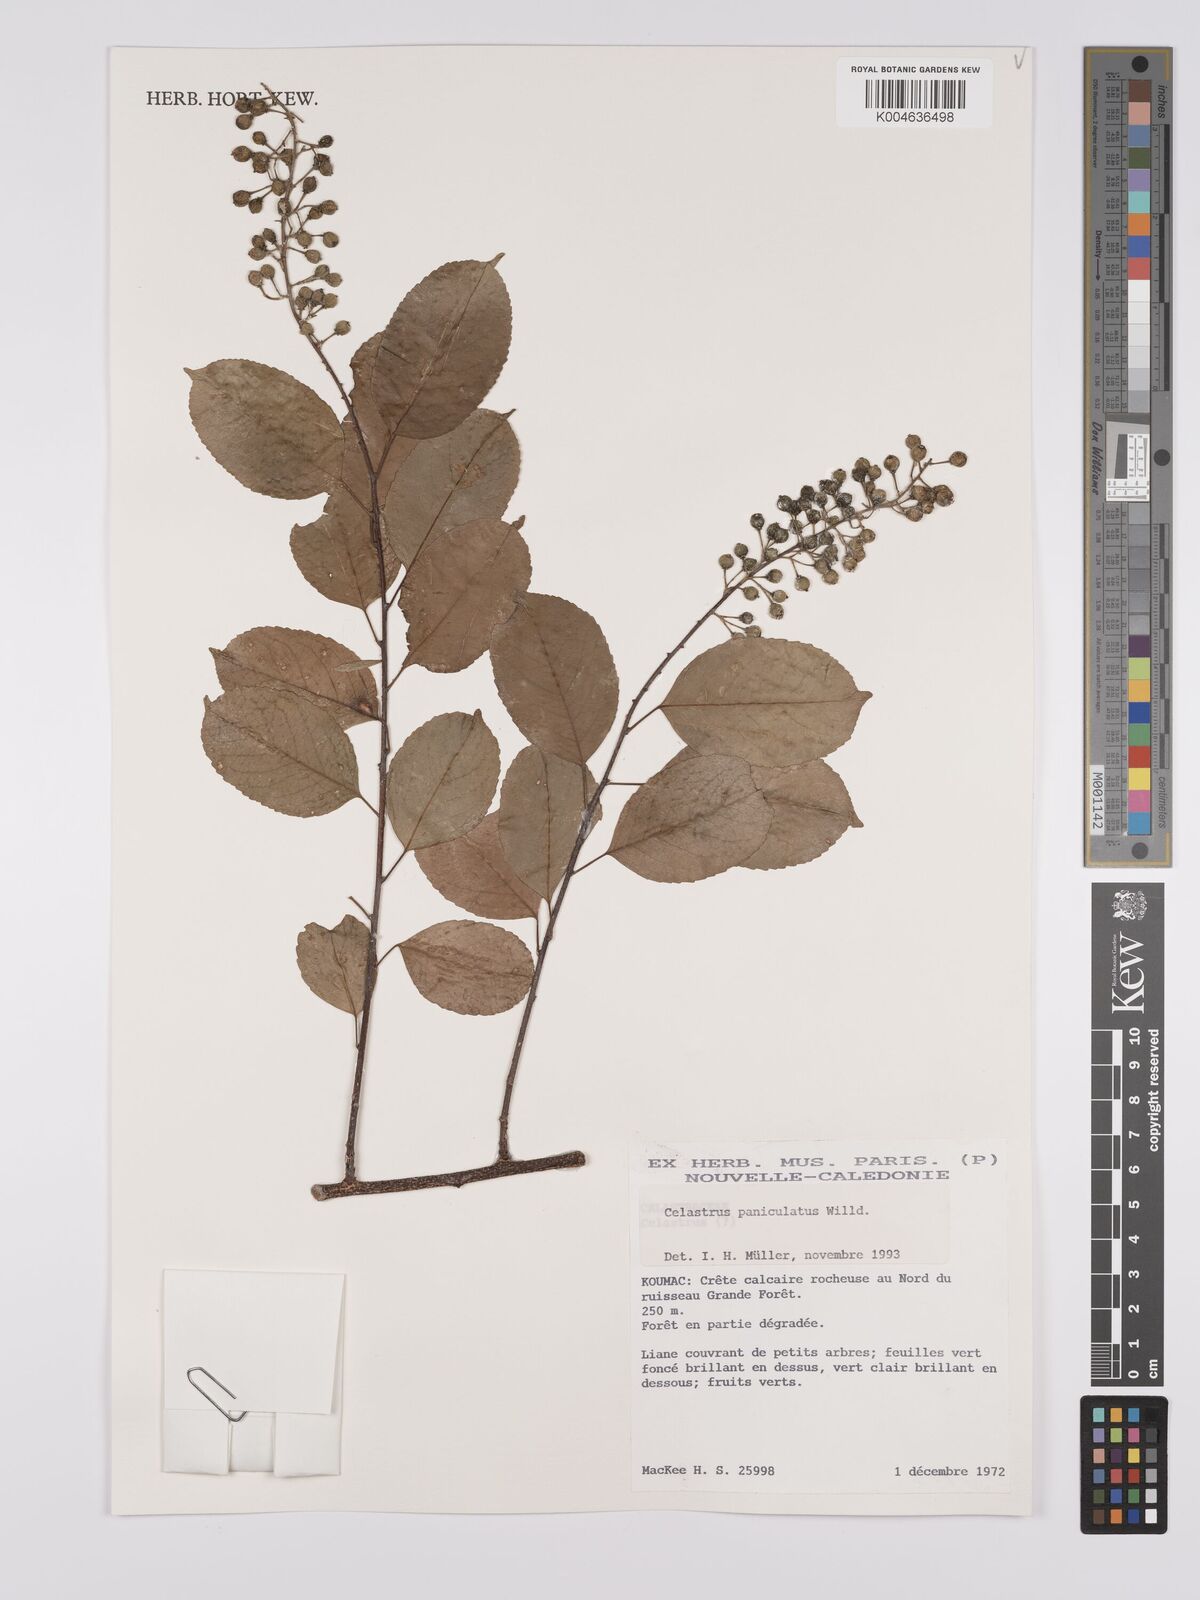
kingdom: Plantae
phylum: Tracheophyta
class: Magnoliopsida
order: Celastrales
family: Celastraceae
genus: Celastrus
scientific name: Celastrus paniculatus
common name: Oriental bittersweet; staff vine
